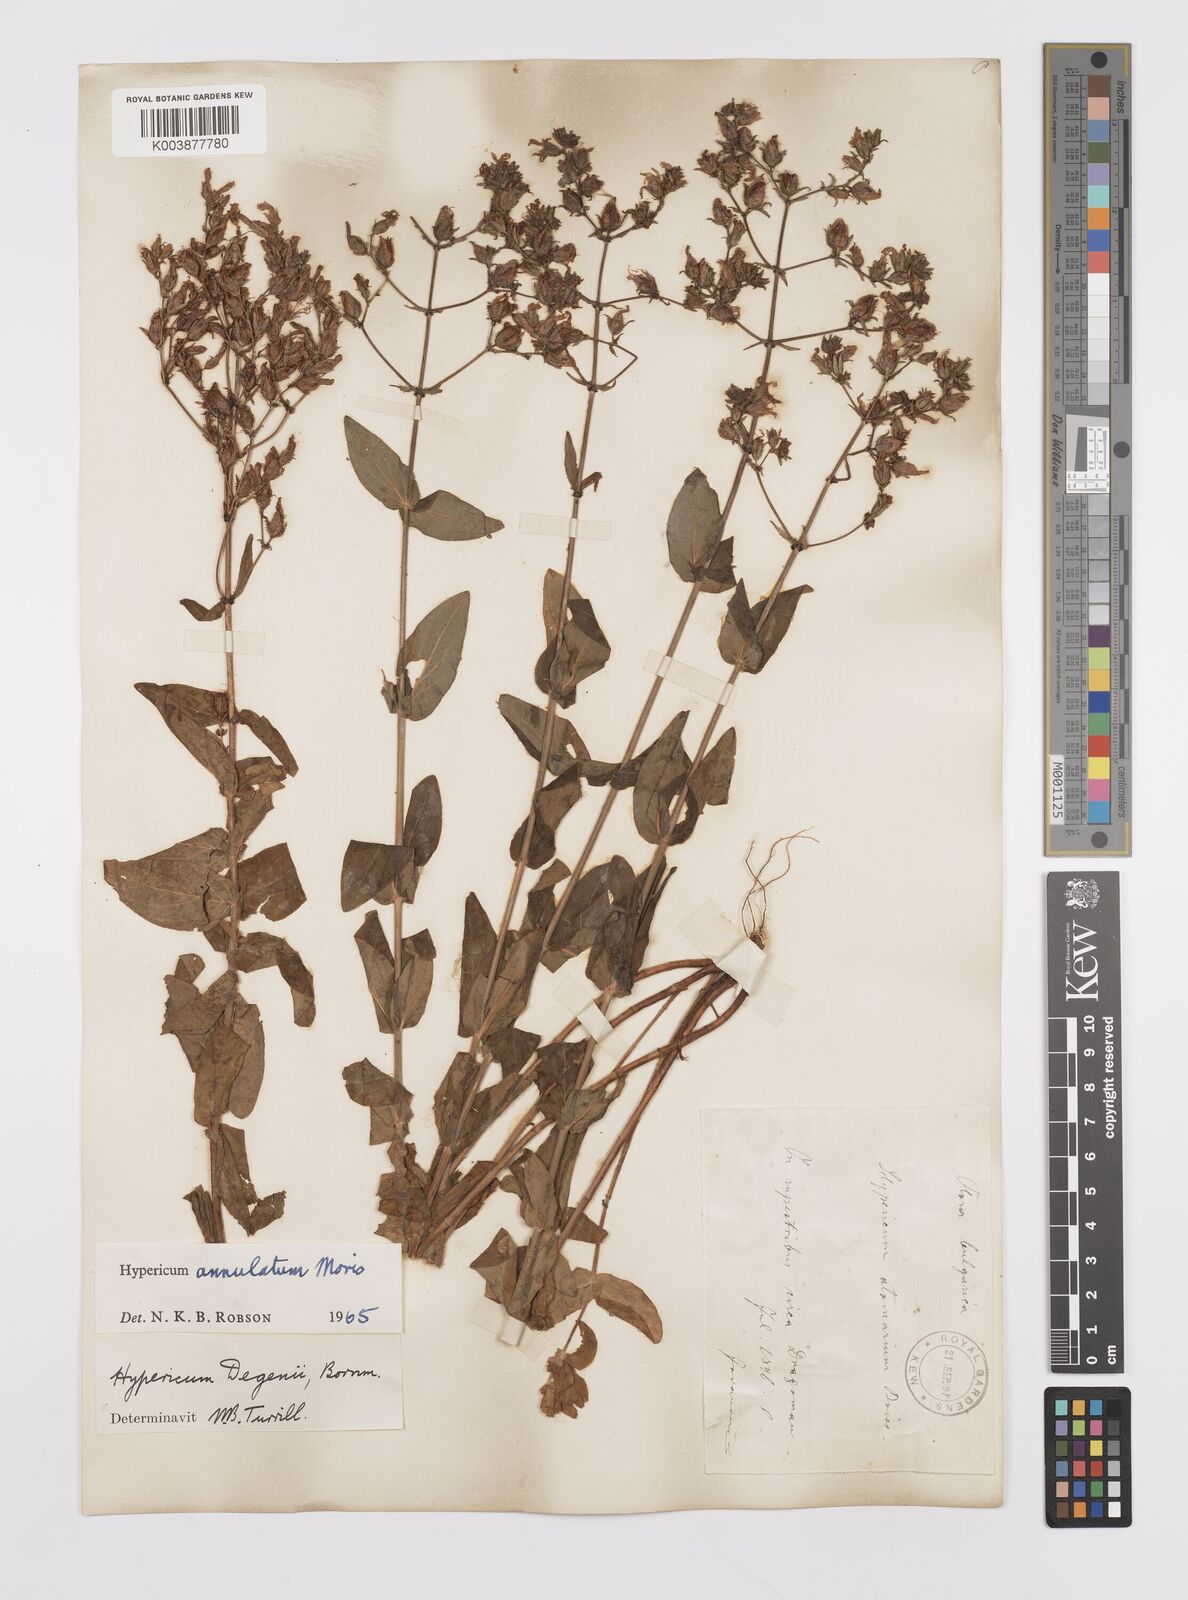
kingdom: Plantae
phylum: Tracheophyta
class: Magnoliopsida
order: Malpighiales
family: Hypericaceae
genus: Hypericum
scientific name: Hypericum annulatum
